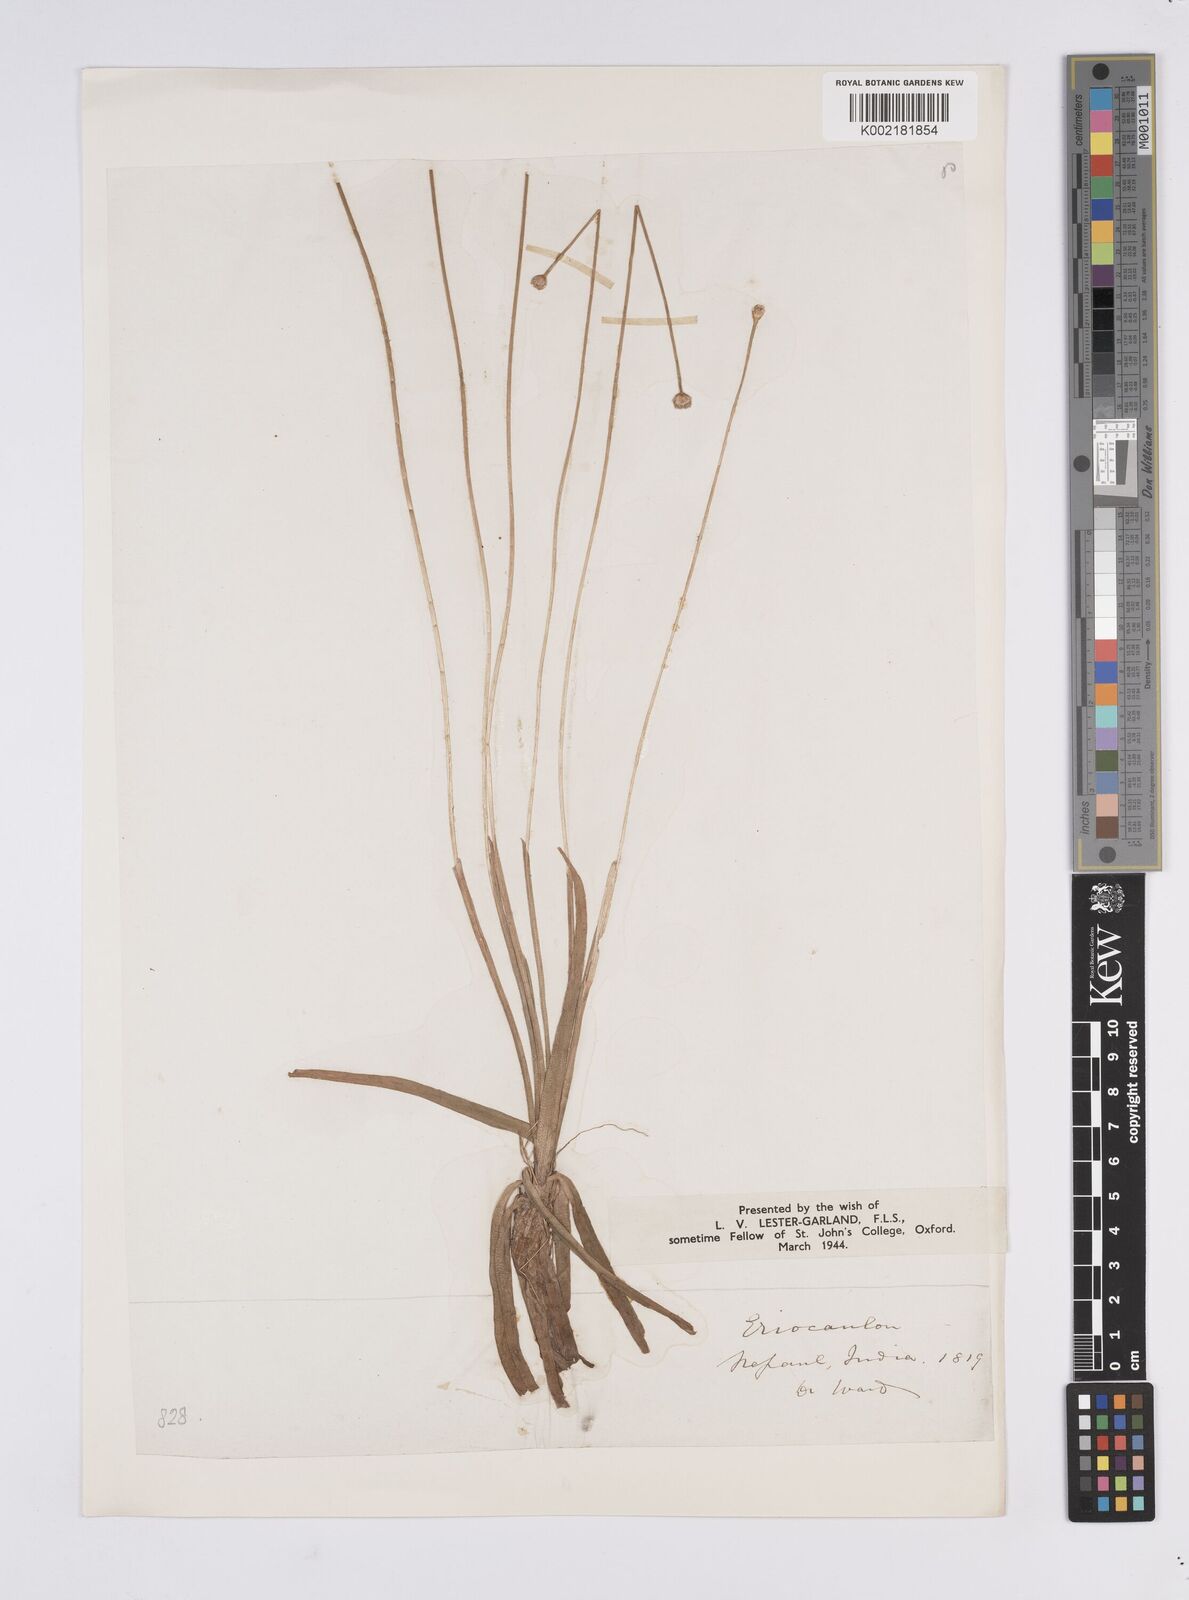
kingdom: Plantae
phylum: Tracheophyta
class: Liliopsida
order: Poales
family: Eriocaulaceae
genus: Eriocaulon
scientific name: Eriocaulon hamiltonianum
